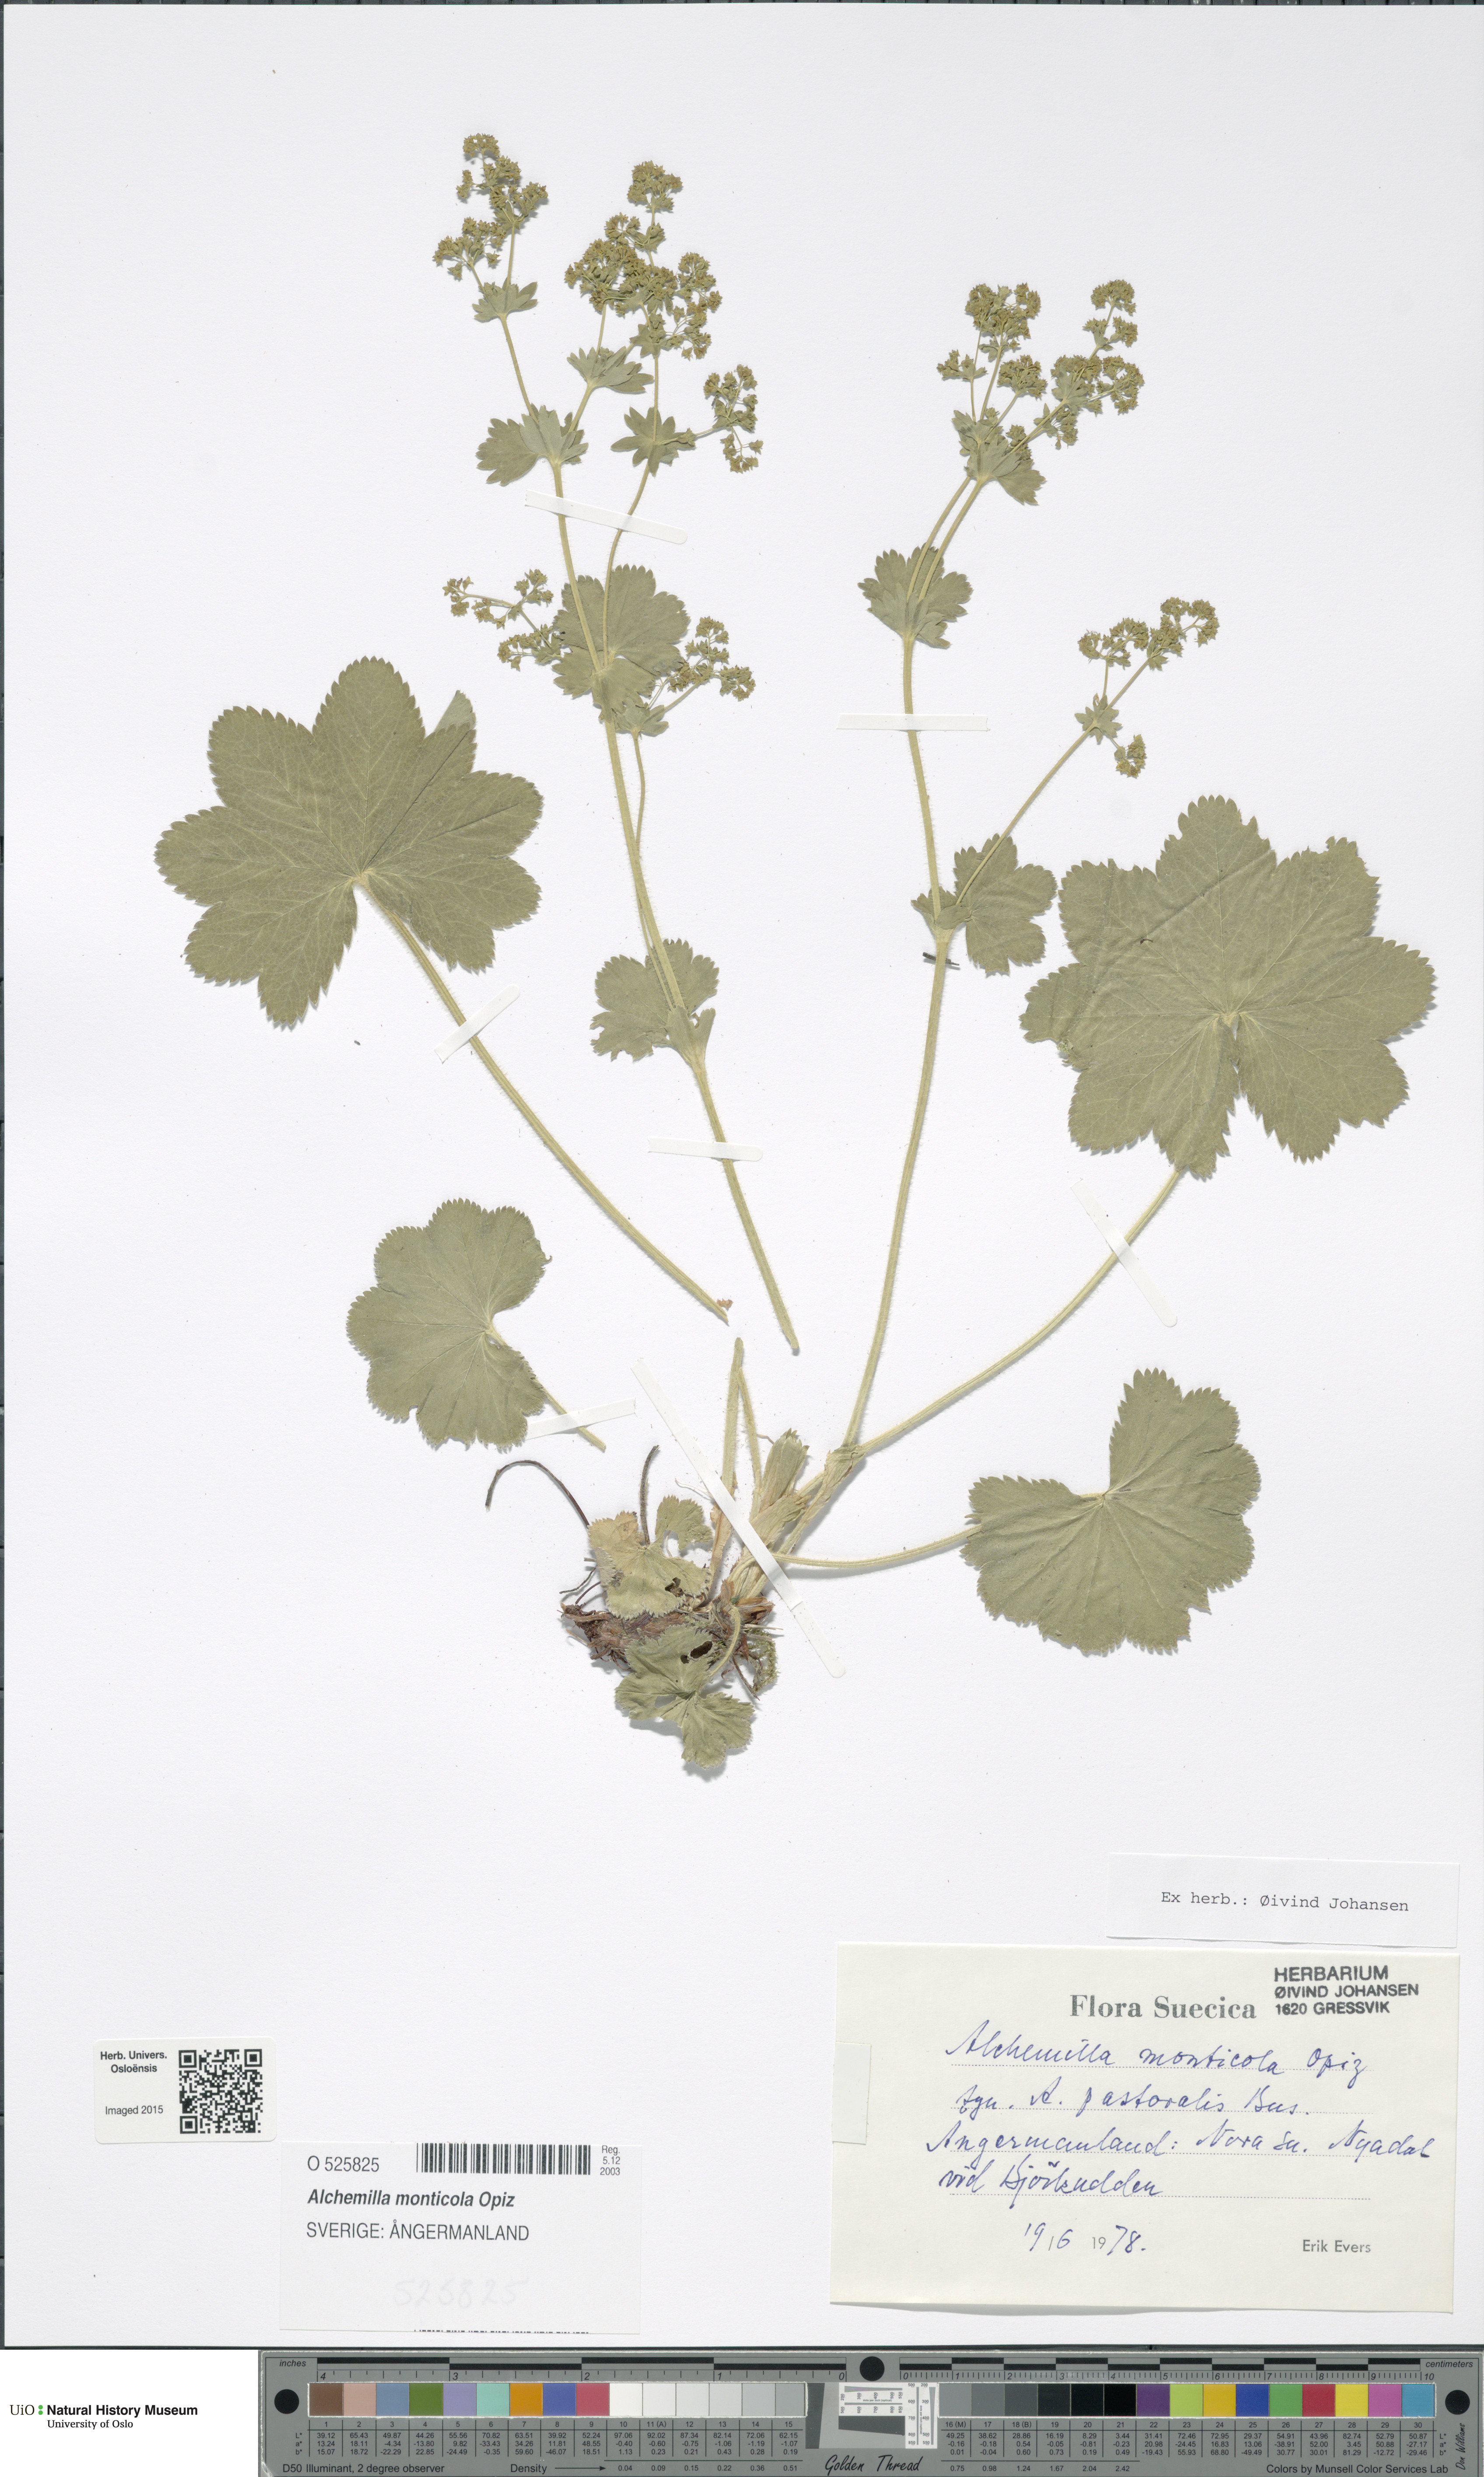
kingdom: Plantae
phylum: Tracheophyta
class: Magnoliopsida
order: Rosales
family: Rosaceae
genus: Alchemilla
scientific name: Alchemilla monticola
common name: Hairy lady's mantle
